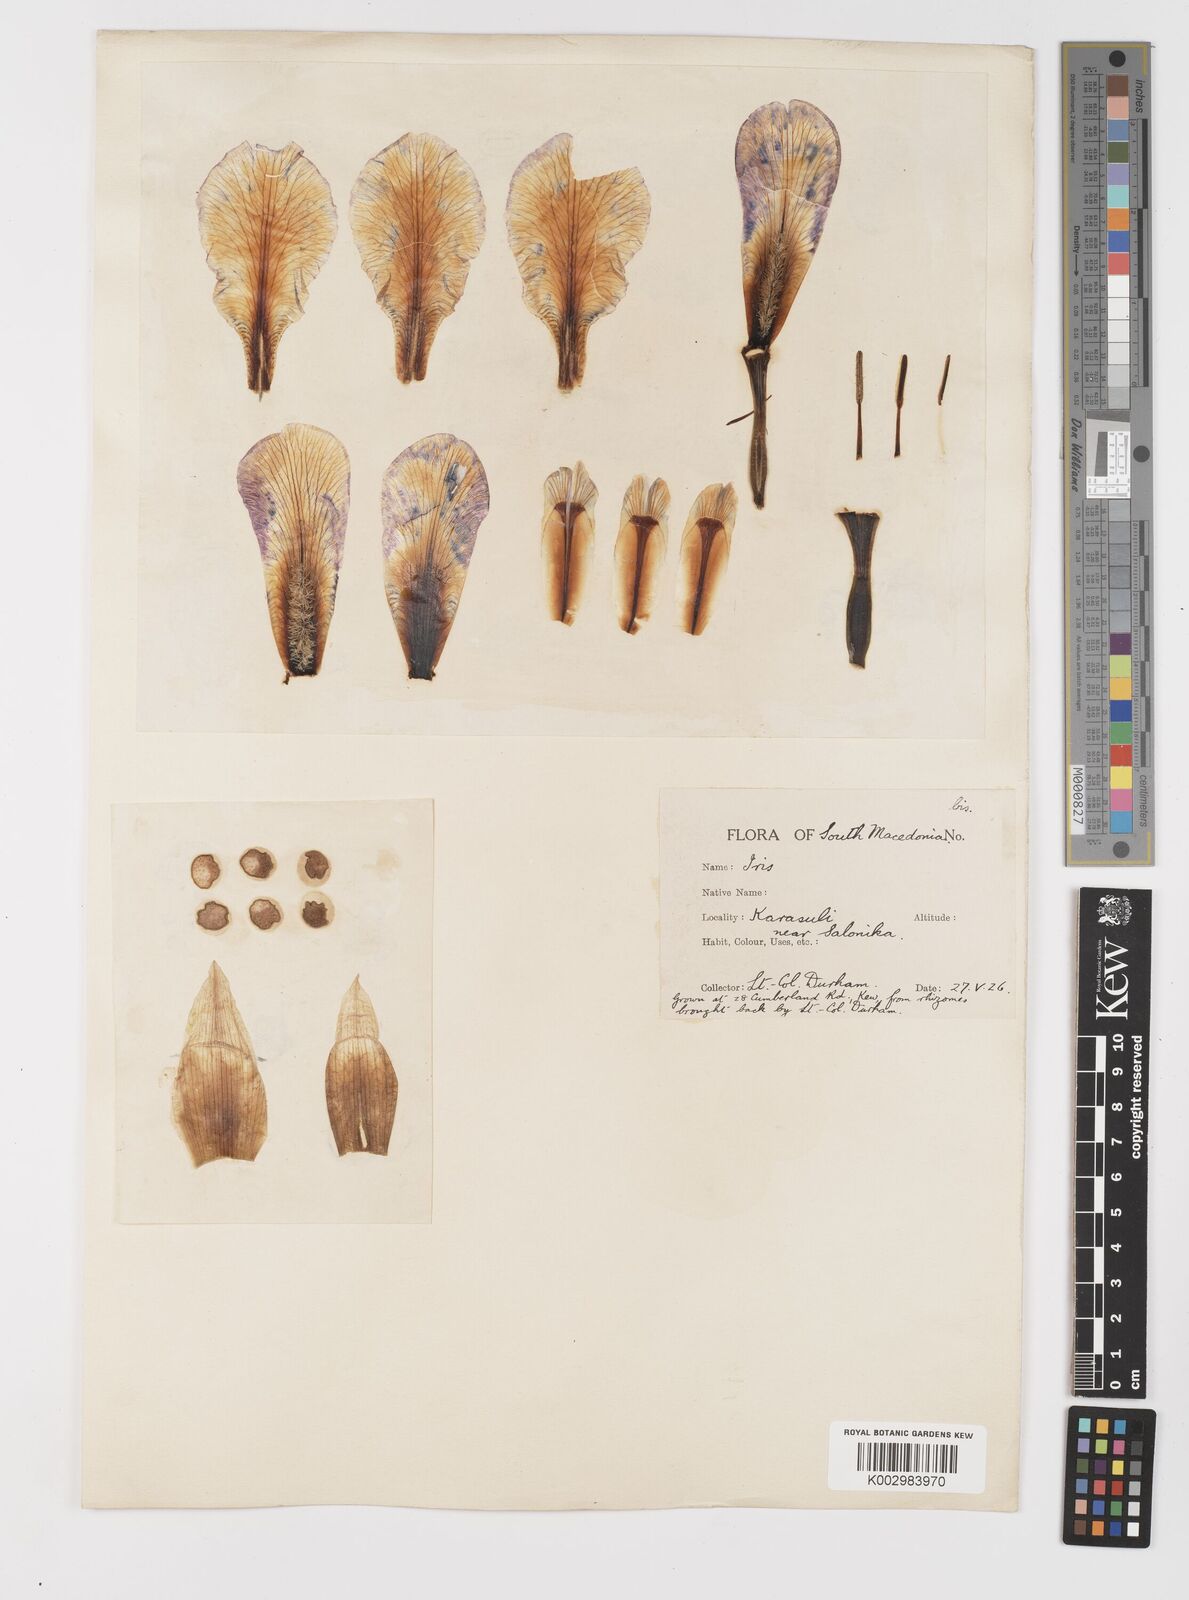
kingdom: Plantae
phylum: Tracheophyta
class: Liliopsida
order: Asparagales
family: Iridaceae
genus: Iris
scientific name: Iris germanica
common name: German iris
